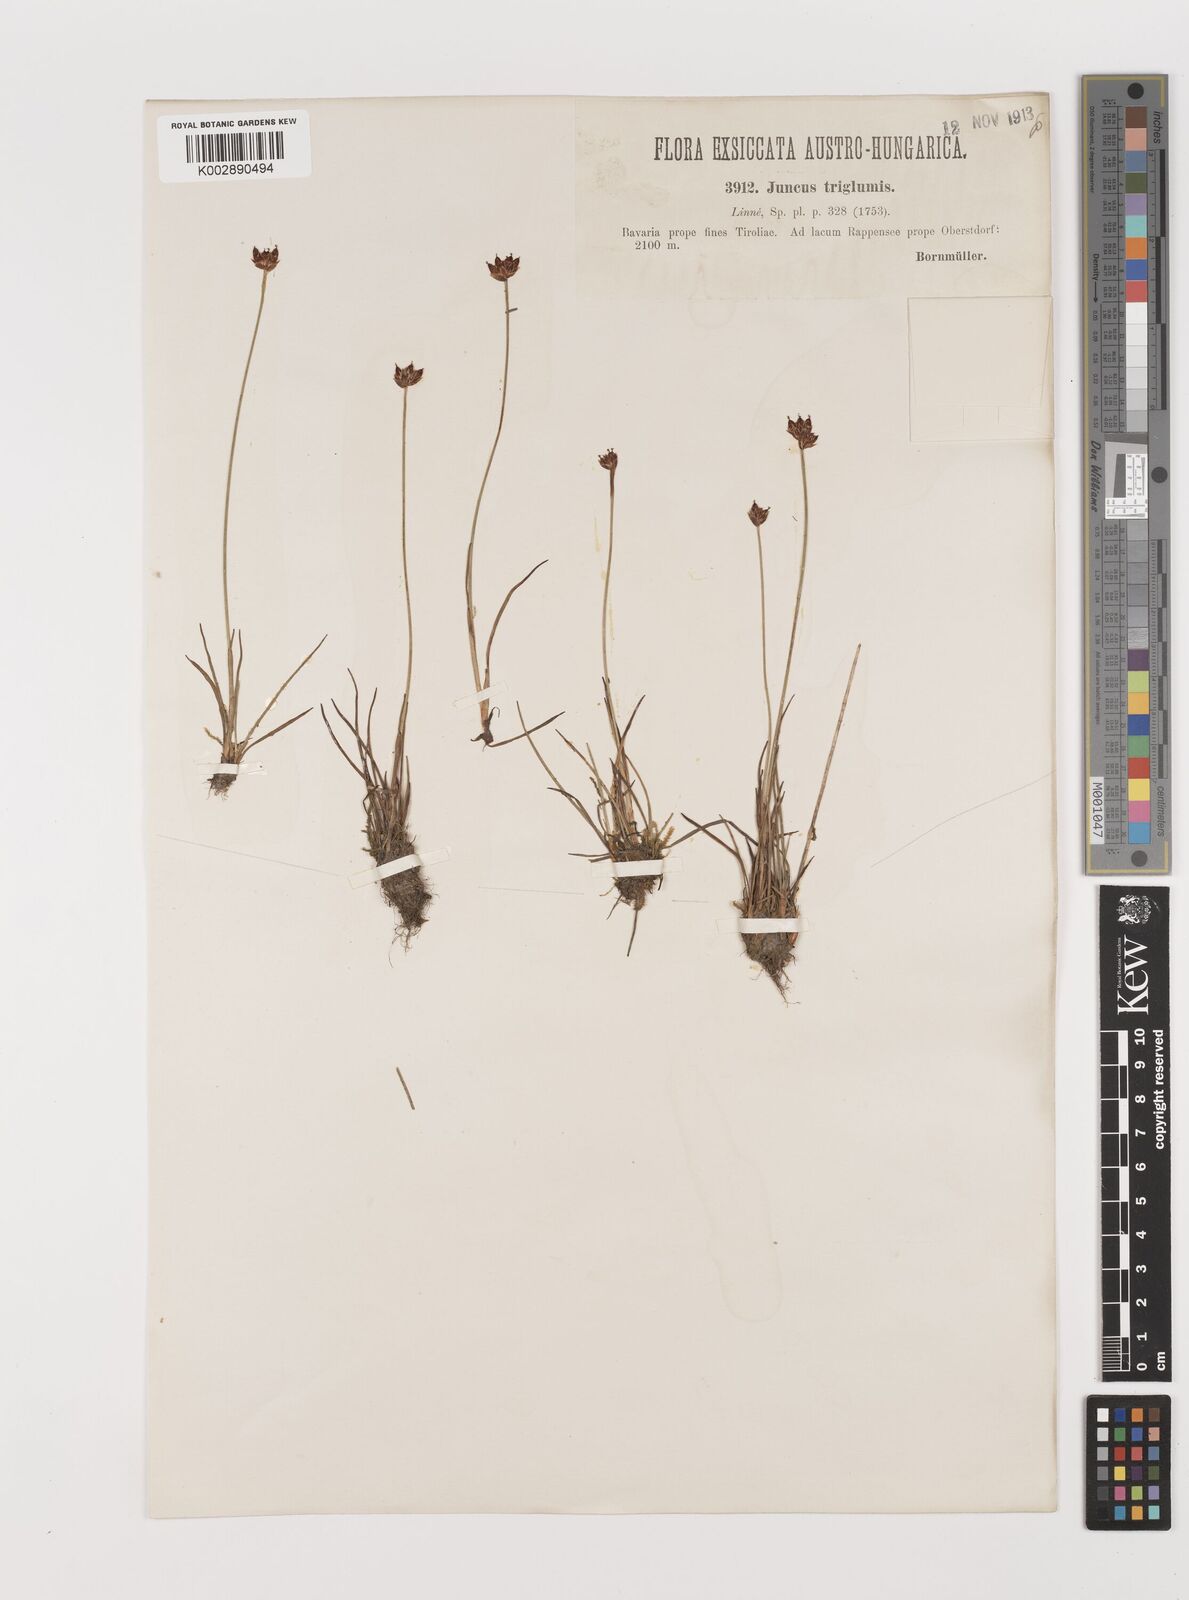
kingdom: Plantae
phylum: Tracheophyta
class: Liliopsida
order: Poales
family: Juncaceae
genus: Juncus
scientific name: Juncus triglumis
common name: Three-flowered rush
